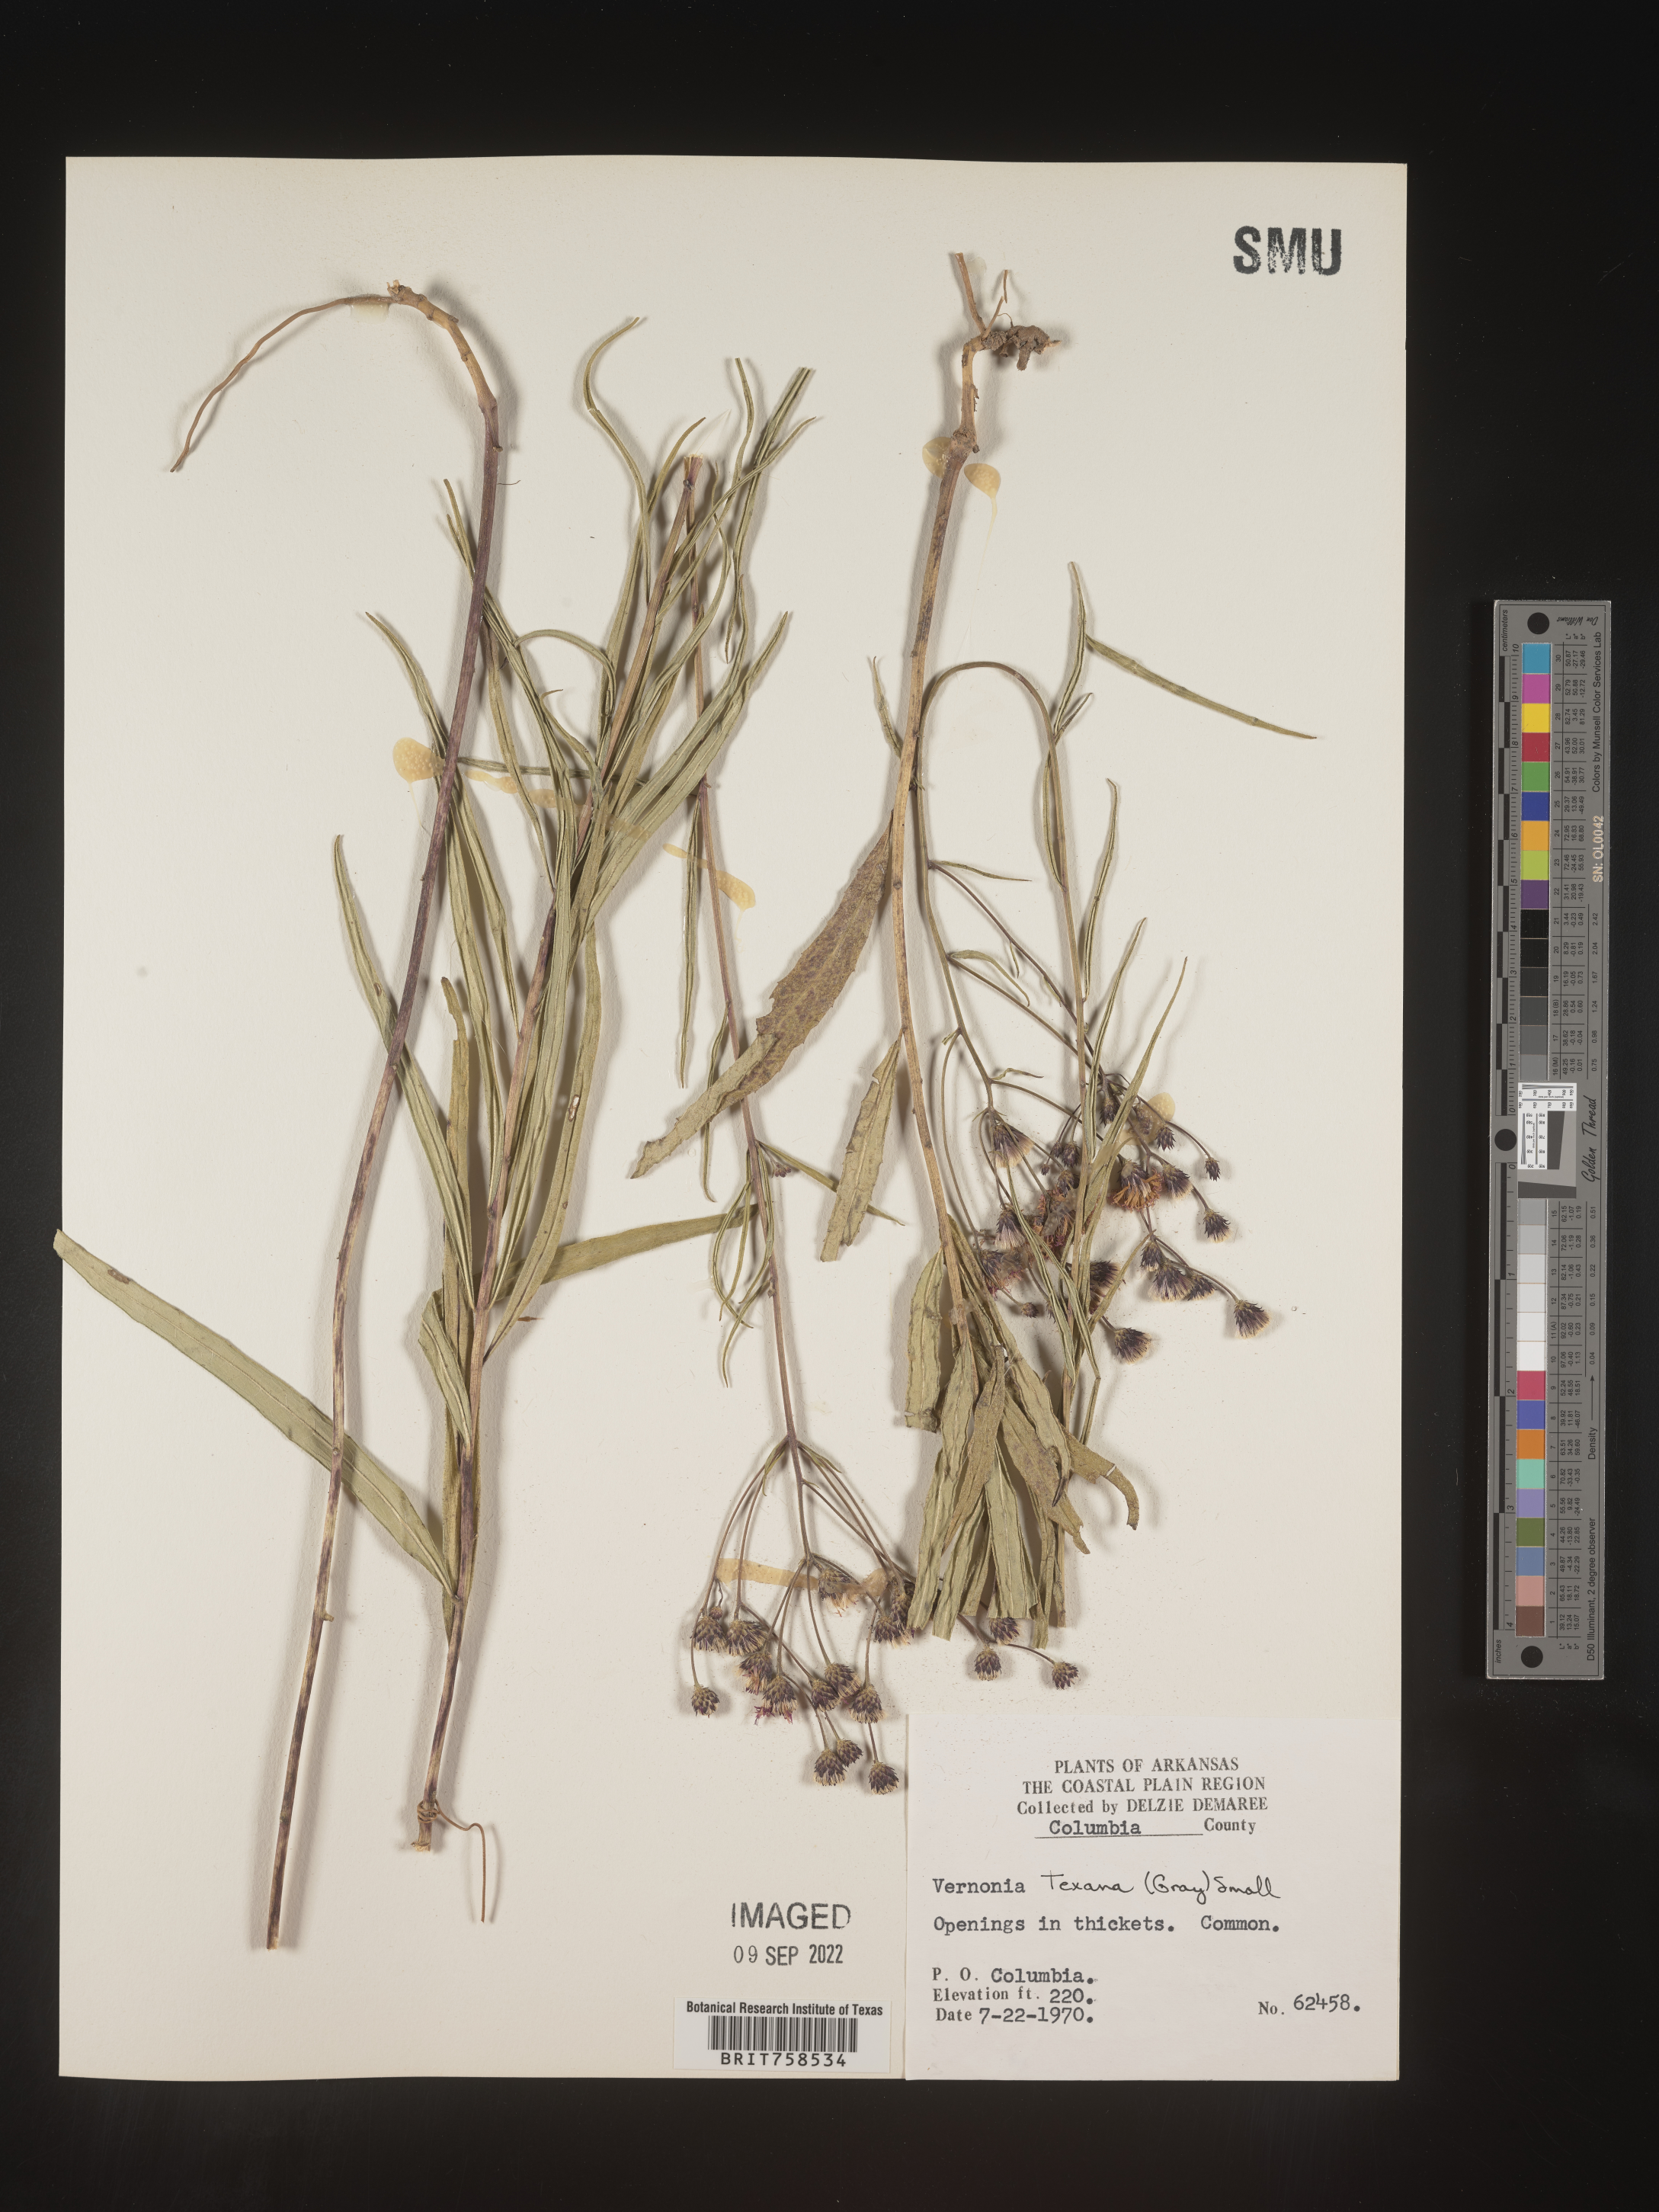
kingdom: Plantae
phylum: Tracheophyta
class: Magnoliopsida
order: Asterales
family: Asteraceae
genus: Vernonia
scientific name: Vernonia texana
